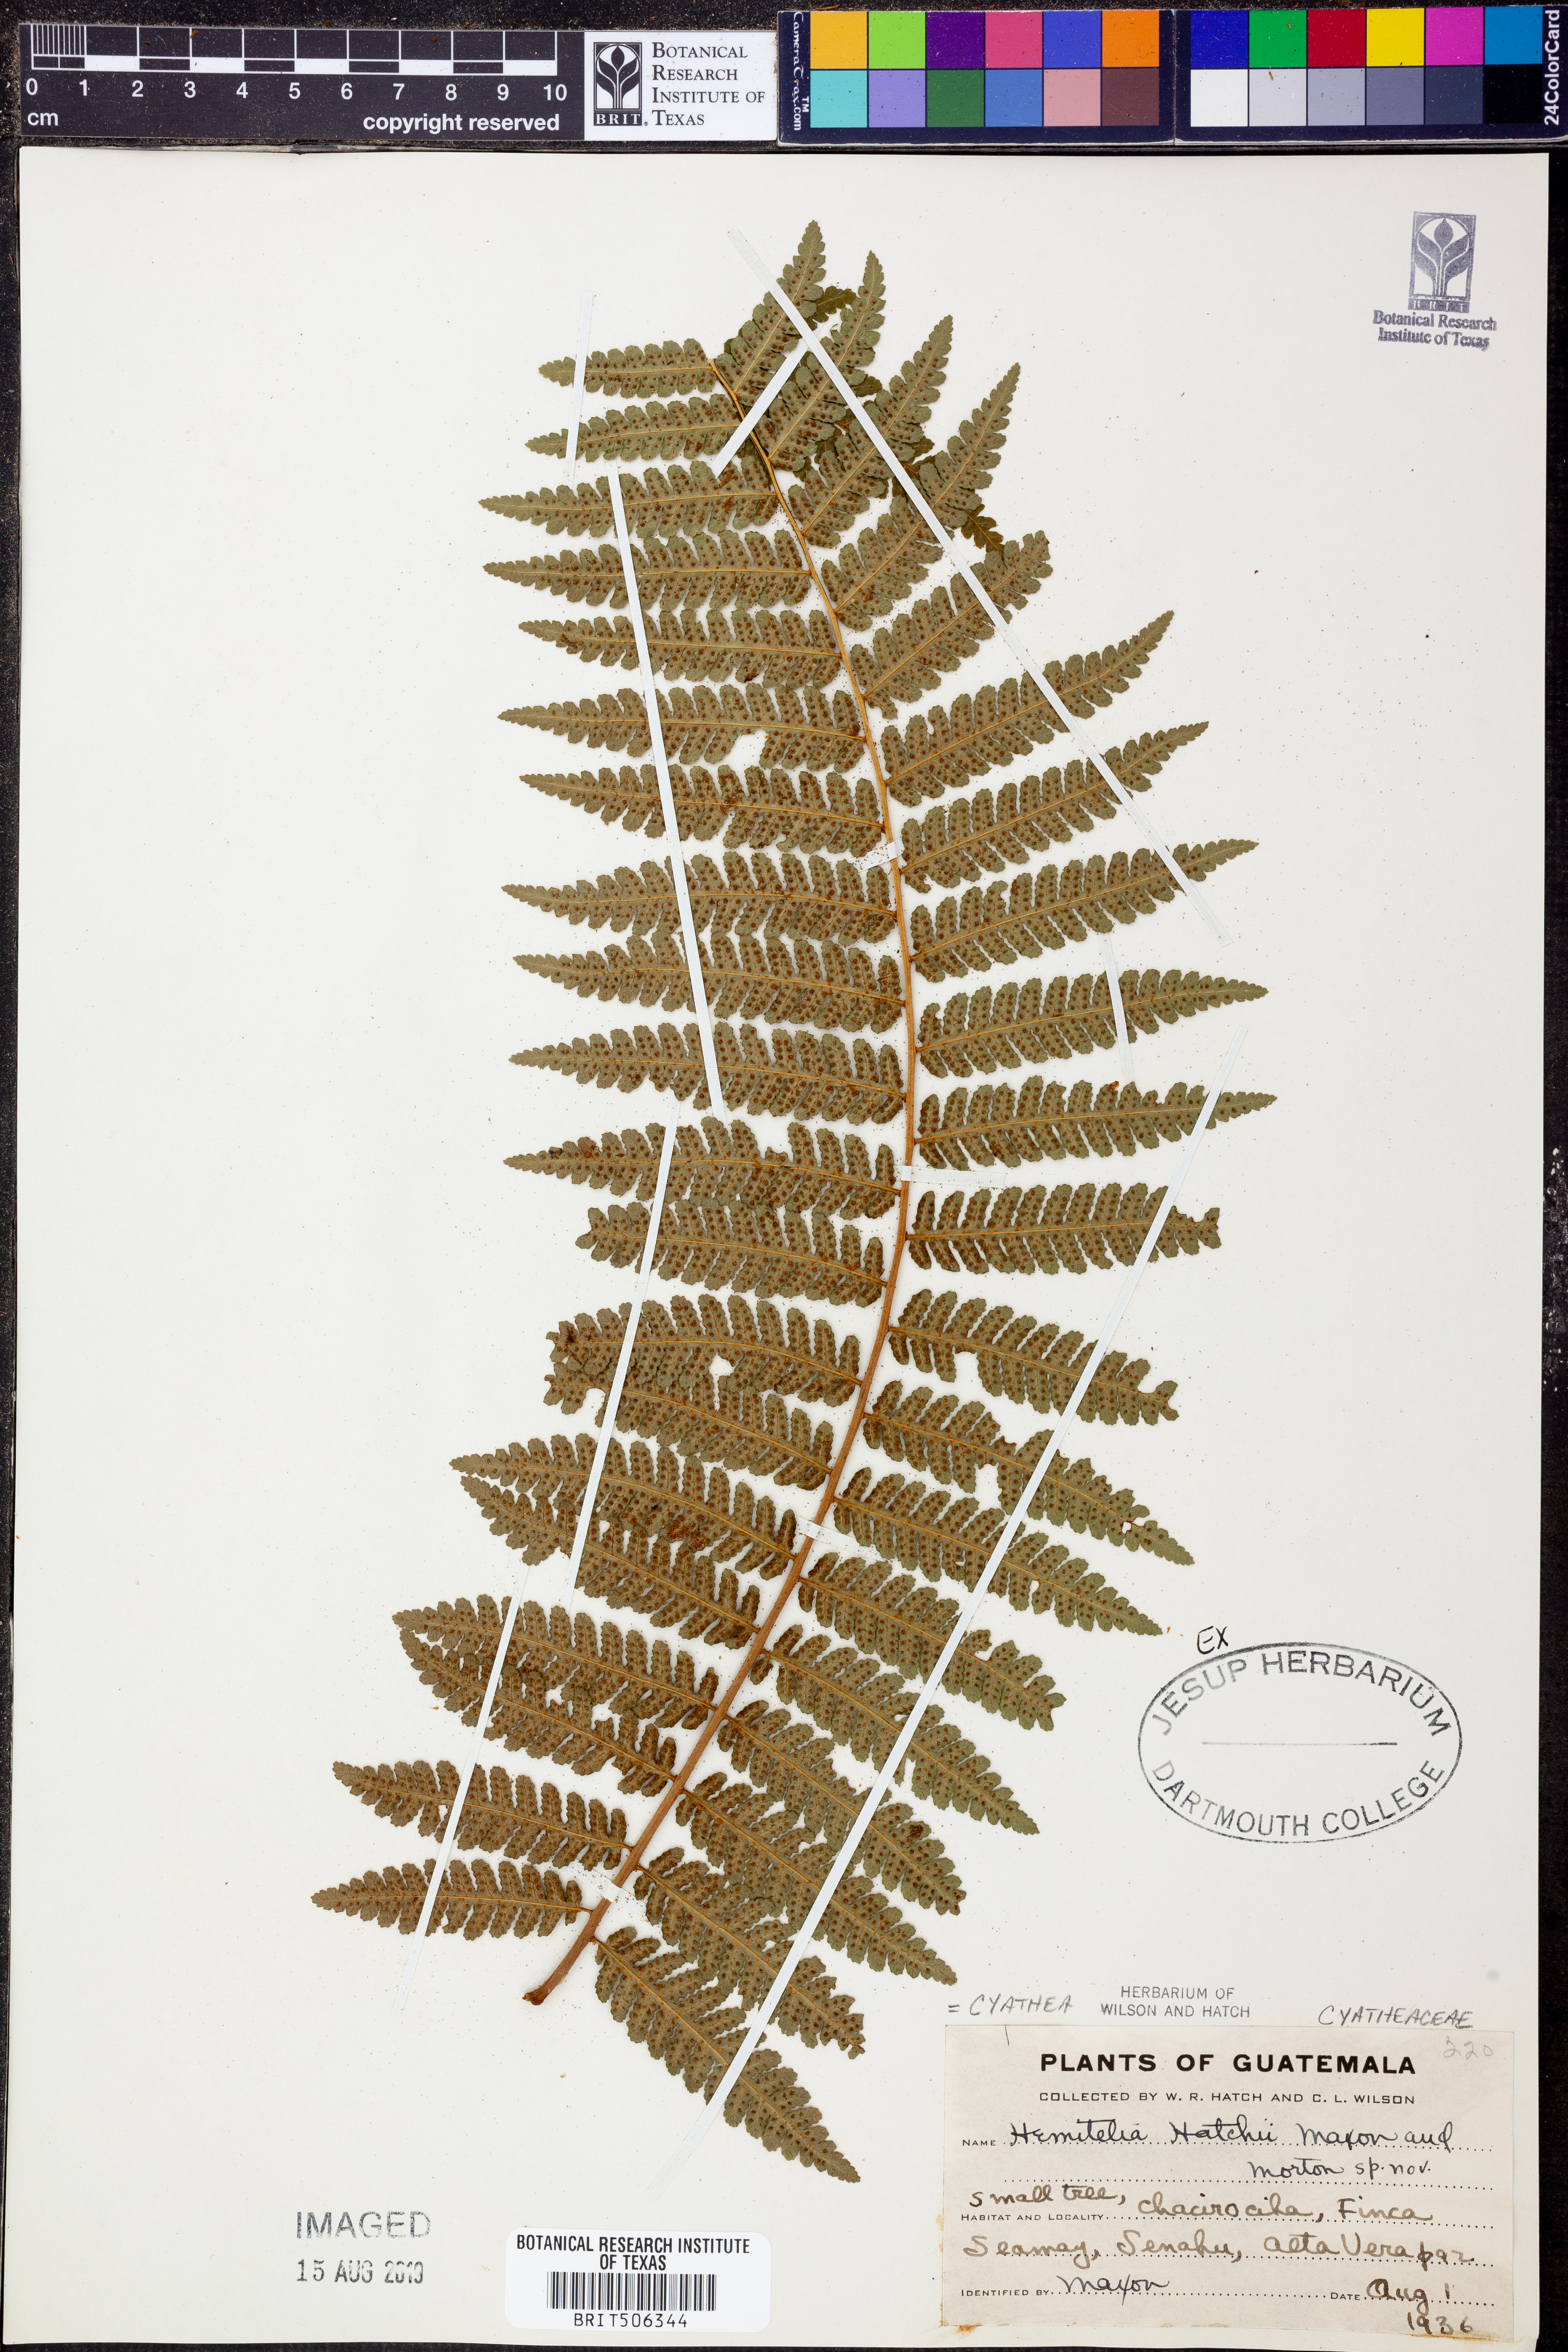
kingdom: Plantae
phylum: Tracheophyta
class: Polypodiopsida
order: Cyatheales
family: Cyatheaceae
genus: Cyathea
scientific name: Cyathea
